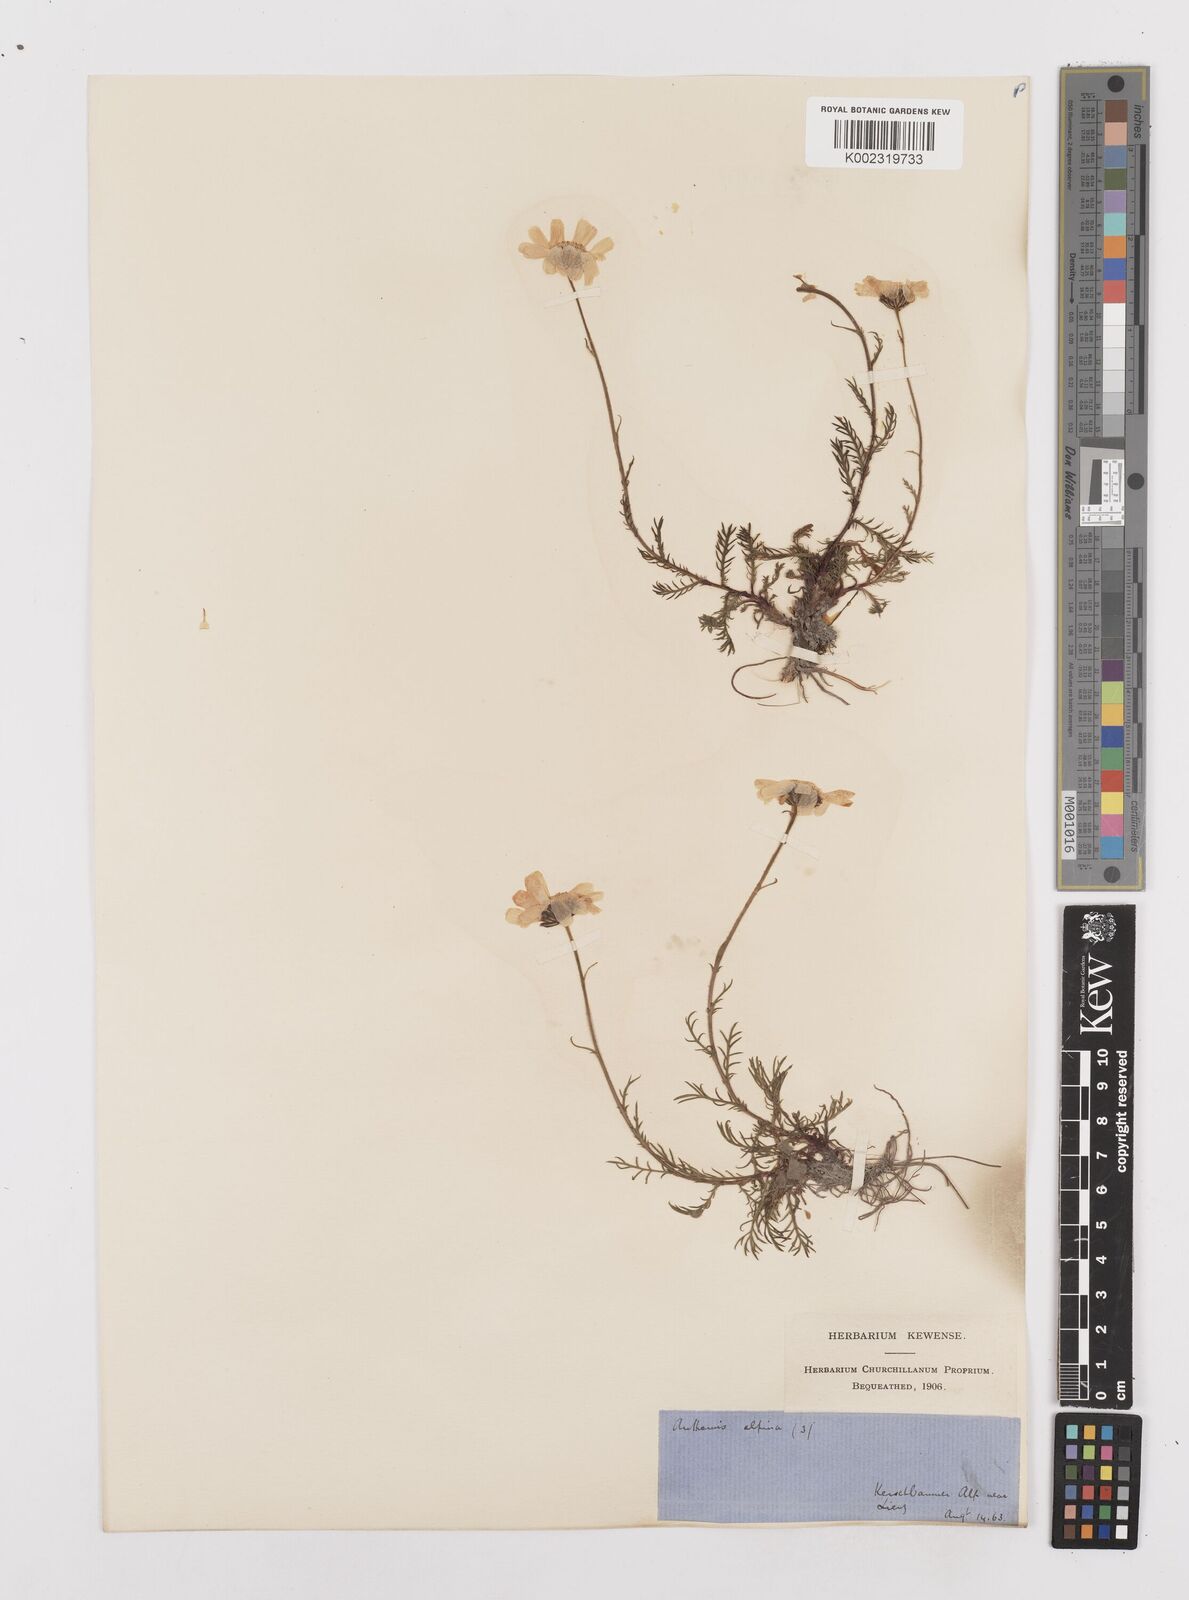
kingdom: Plantae
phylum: Tracheophyta
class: Magnoliopsida
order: Asterales
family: Asteraceae
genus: Achillea
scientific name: Achillea oxyloba
